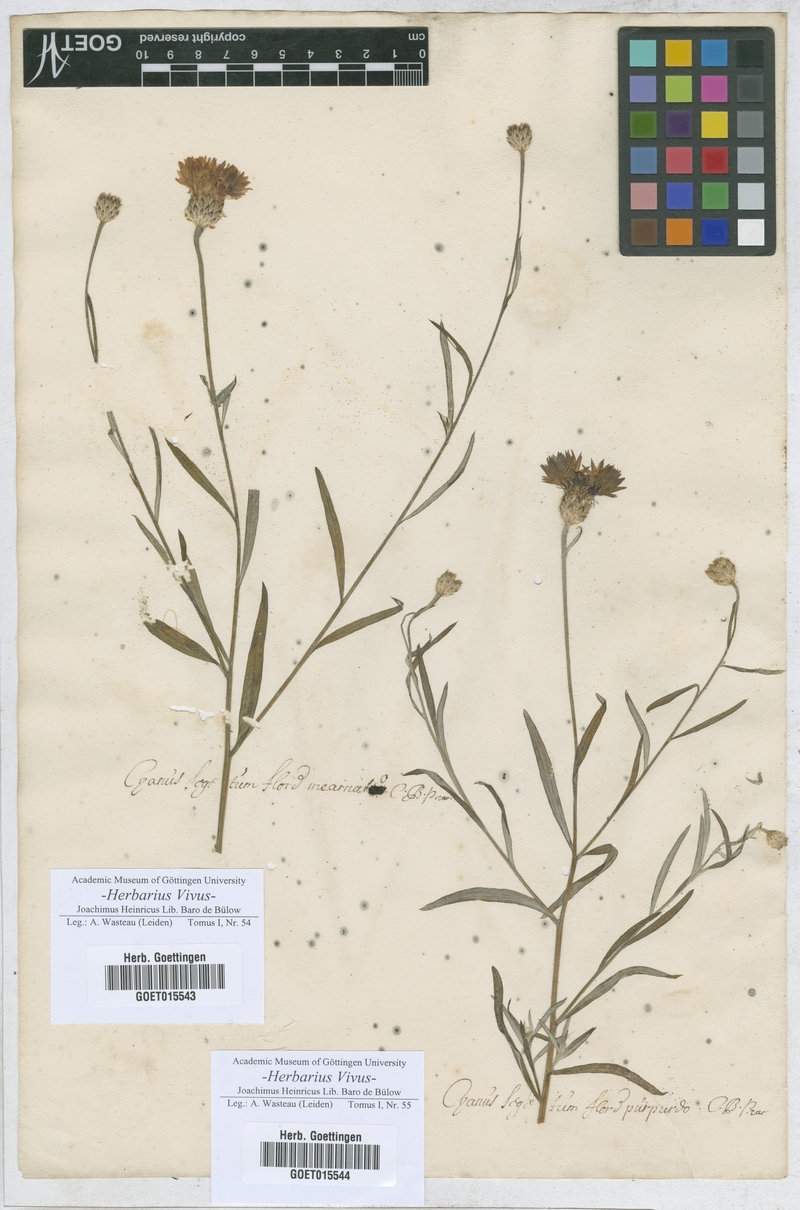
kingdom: Plantae
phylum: Tracheophyta
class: Magnoliopsida
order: Asterales
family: Asteraceae
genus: Centaurea
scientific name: Centaurea cyanus
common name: Cornflower
